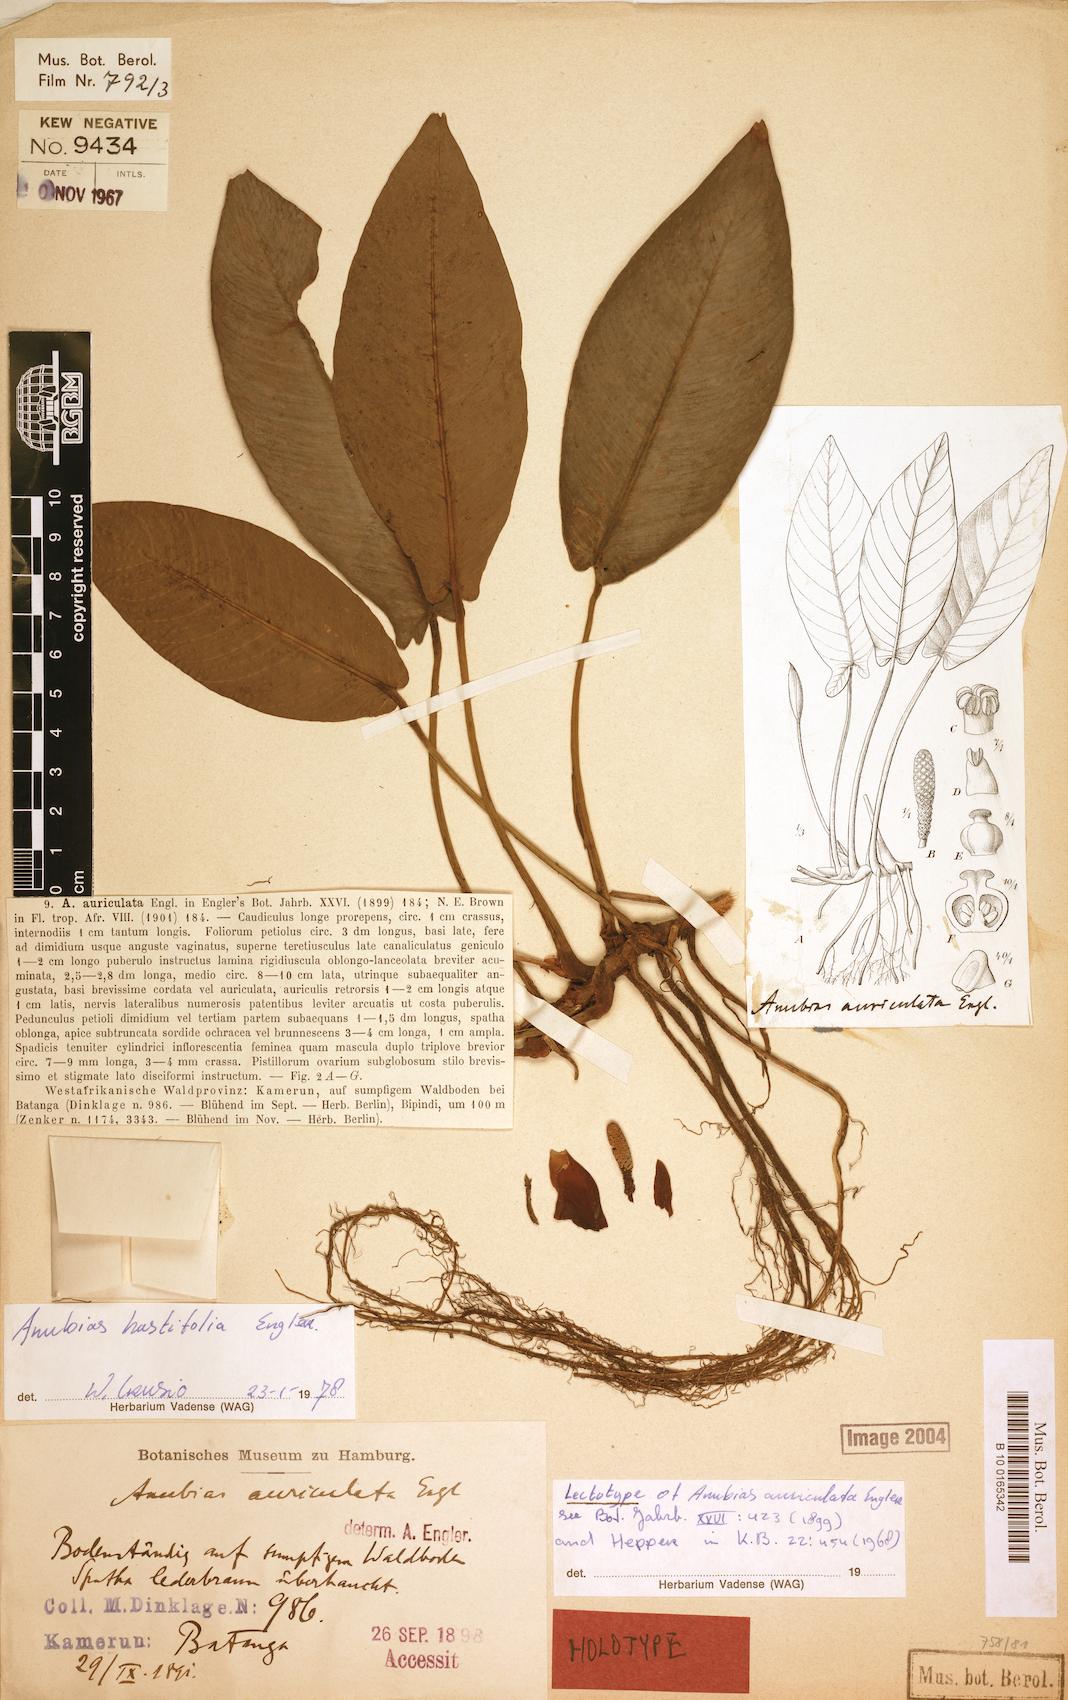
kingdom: Plantae
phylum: Tracheophyta
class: Liliopsida
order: Alismatales
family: Araceae
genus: Anubias
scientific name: Anubias hastifolia
